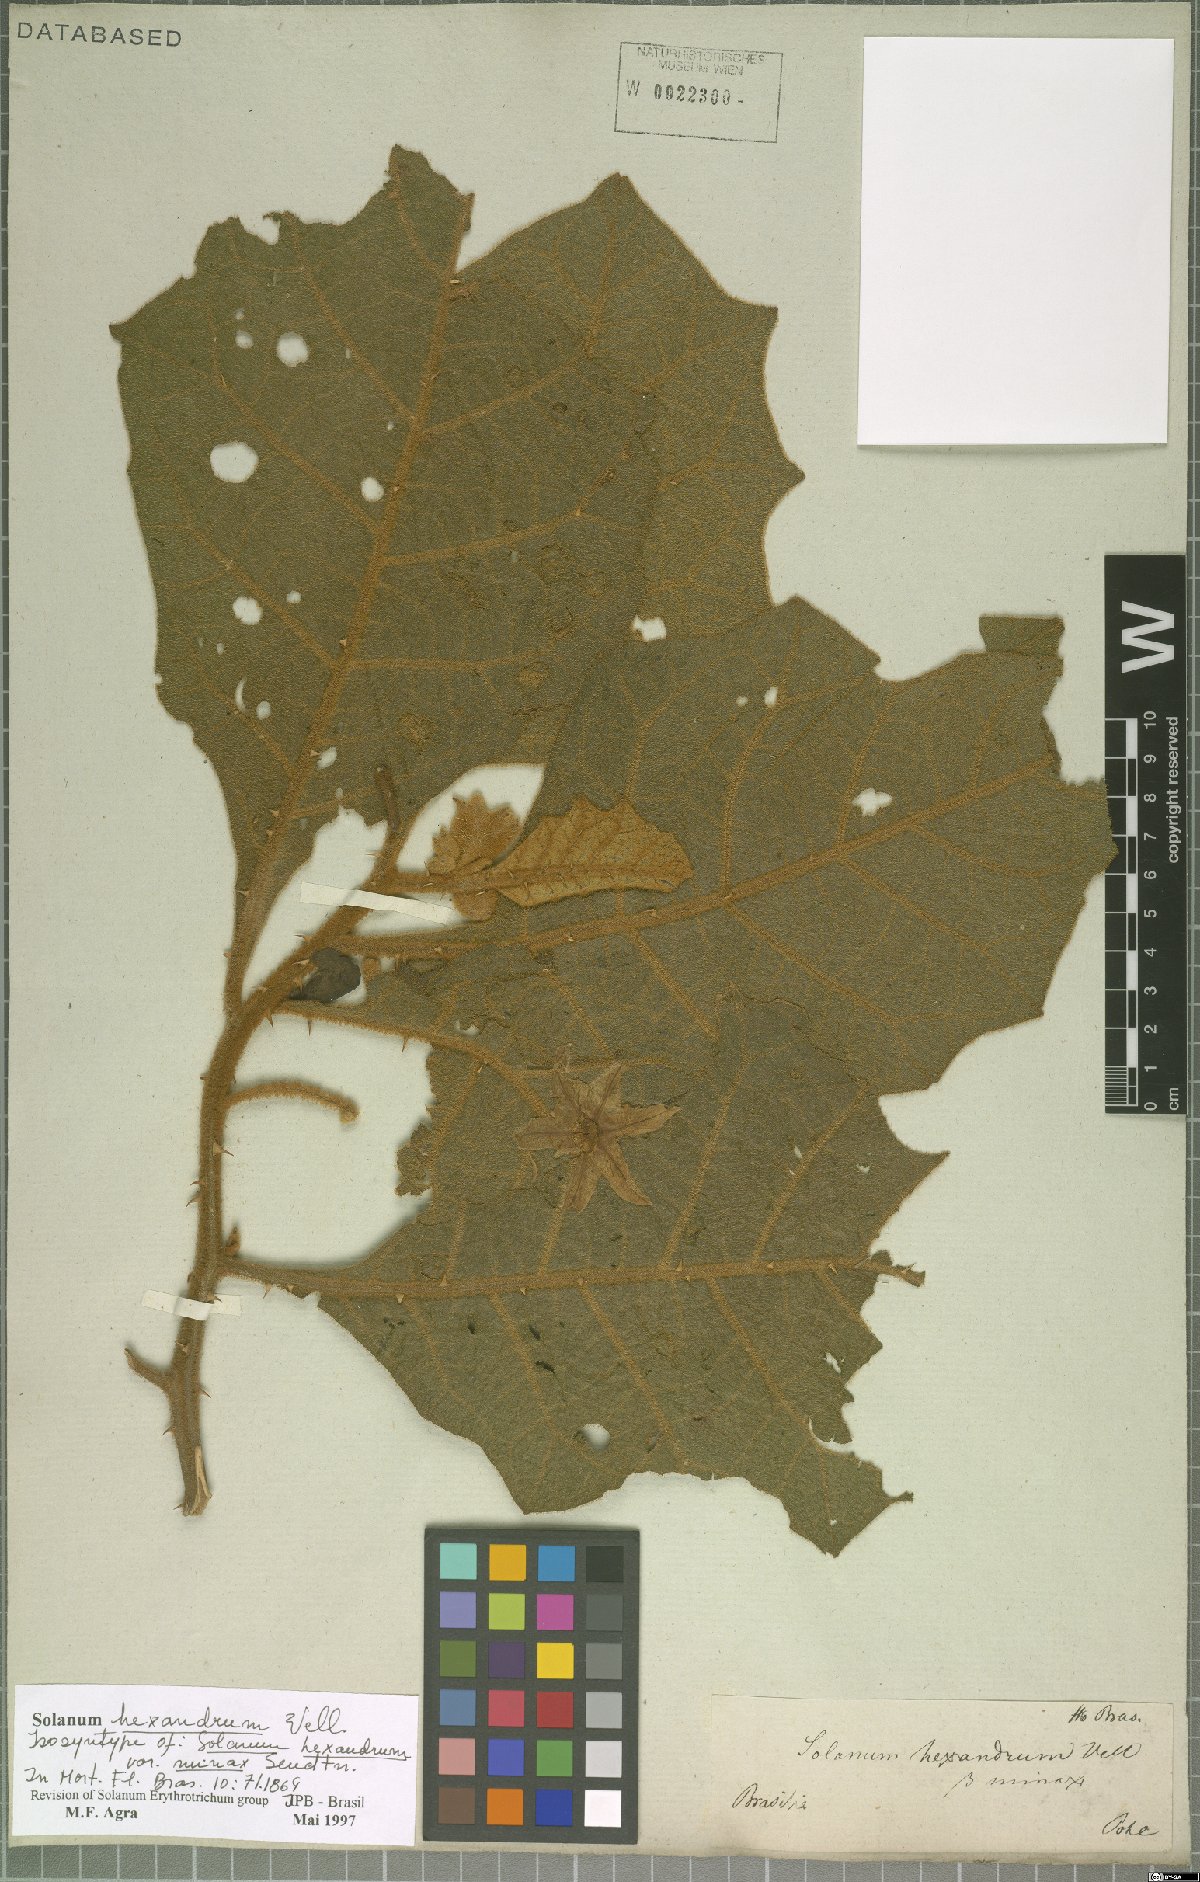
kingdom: Plantae
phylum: Tracheophyta
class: Magnoliopsida
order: Solanales
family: Solanaceae
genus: Solanum
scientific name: Solanum hexandrum
